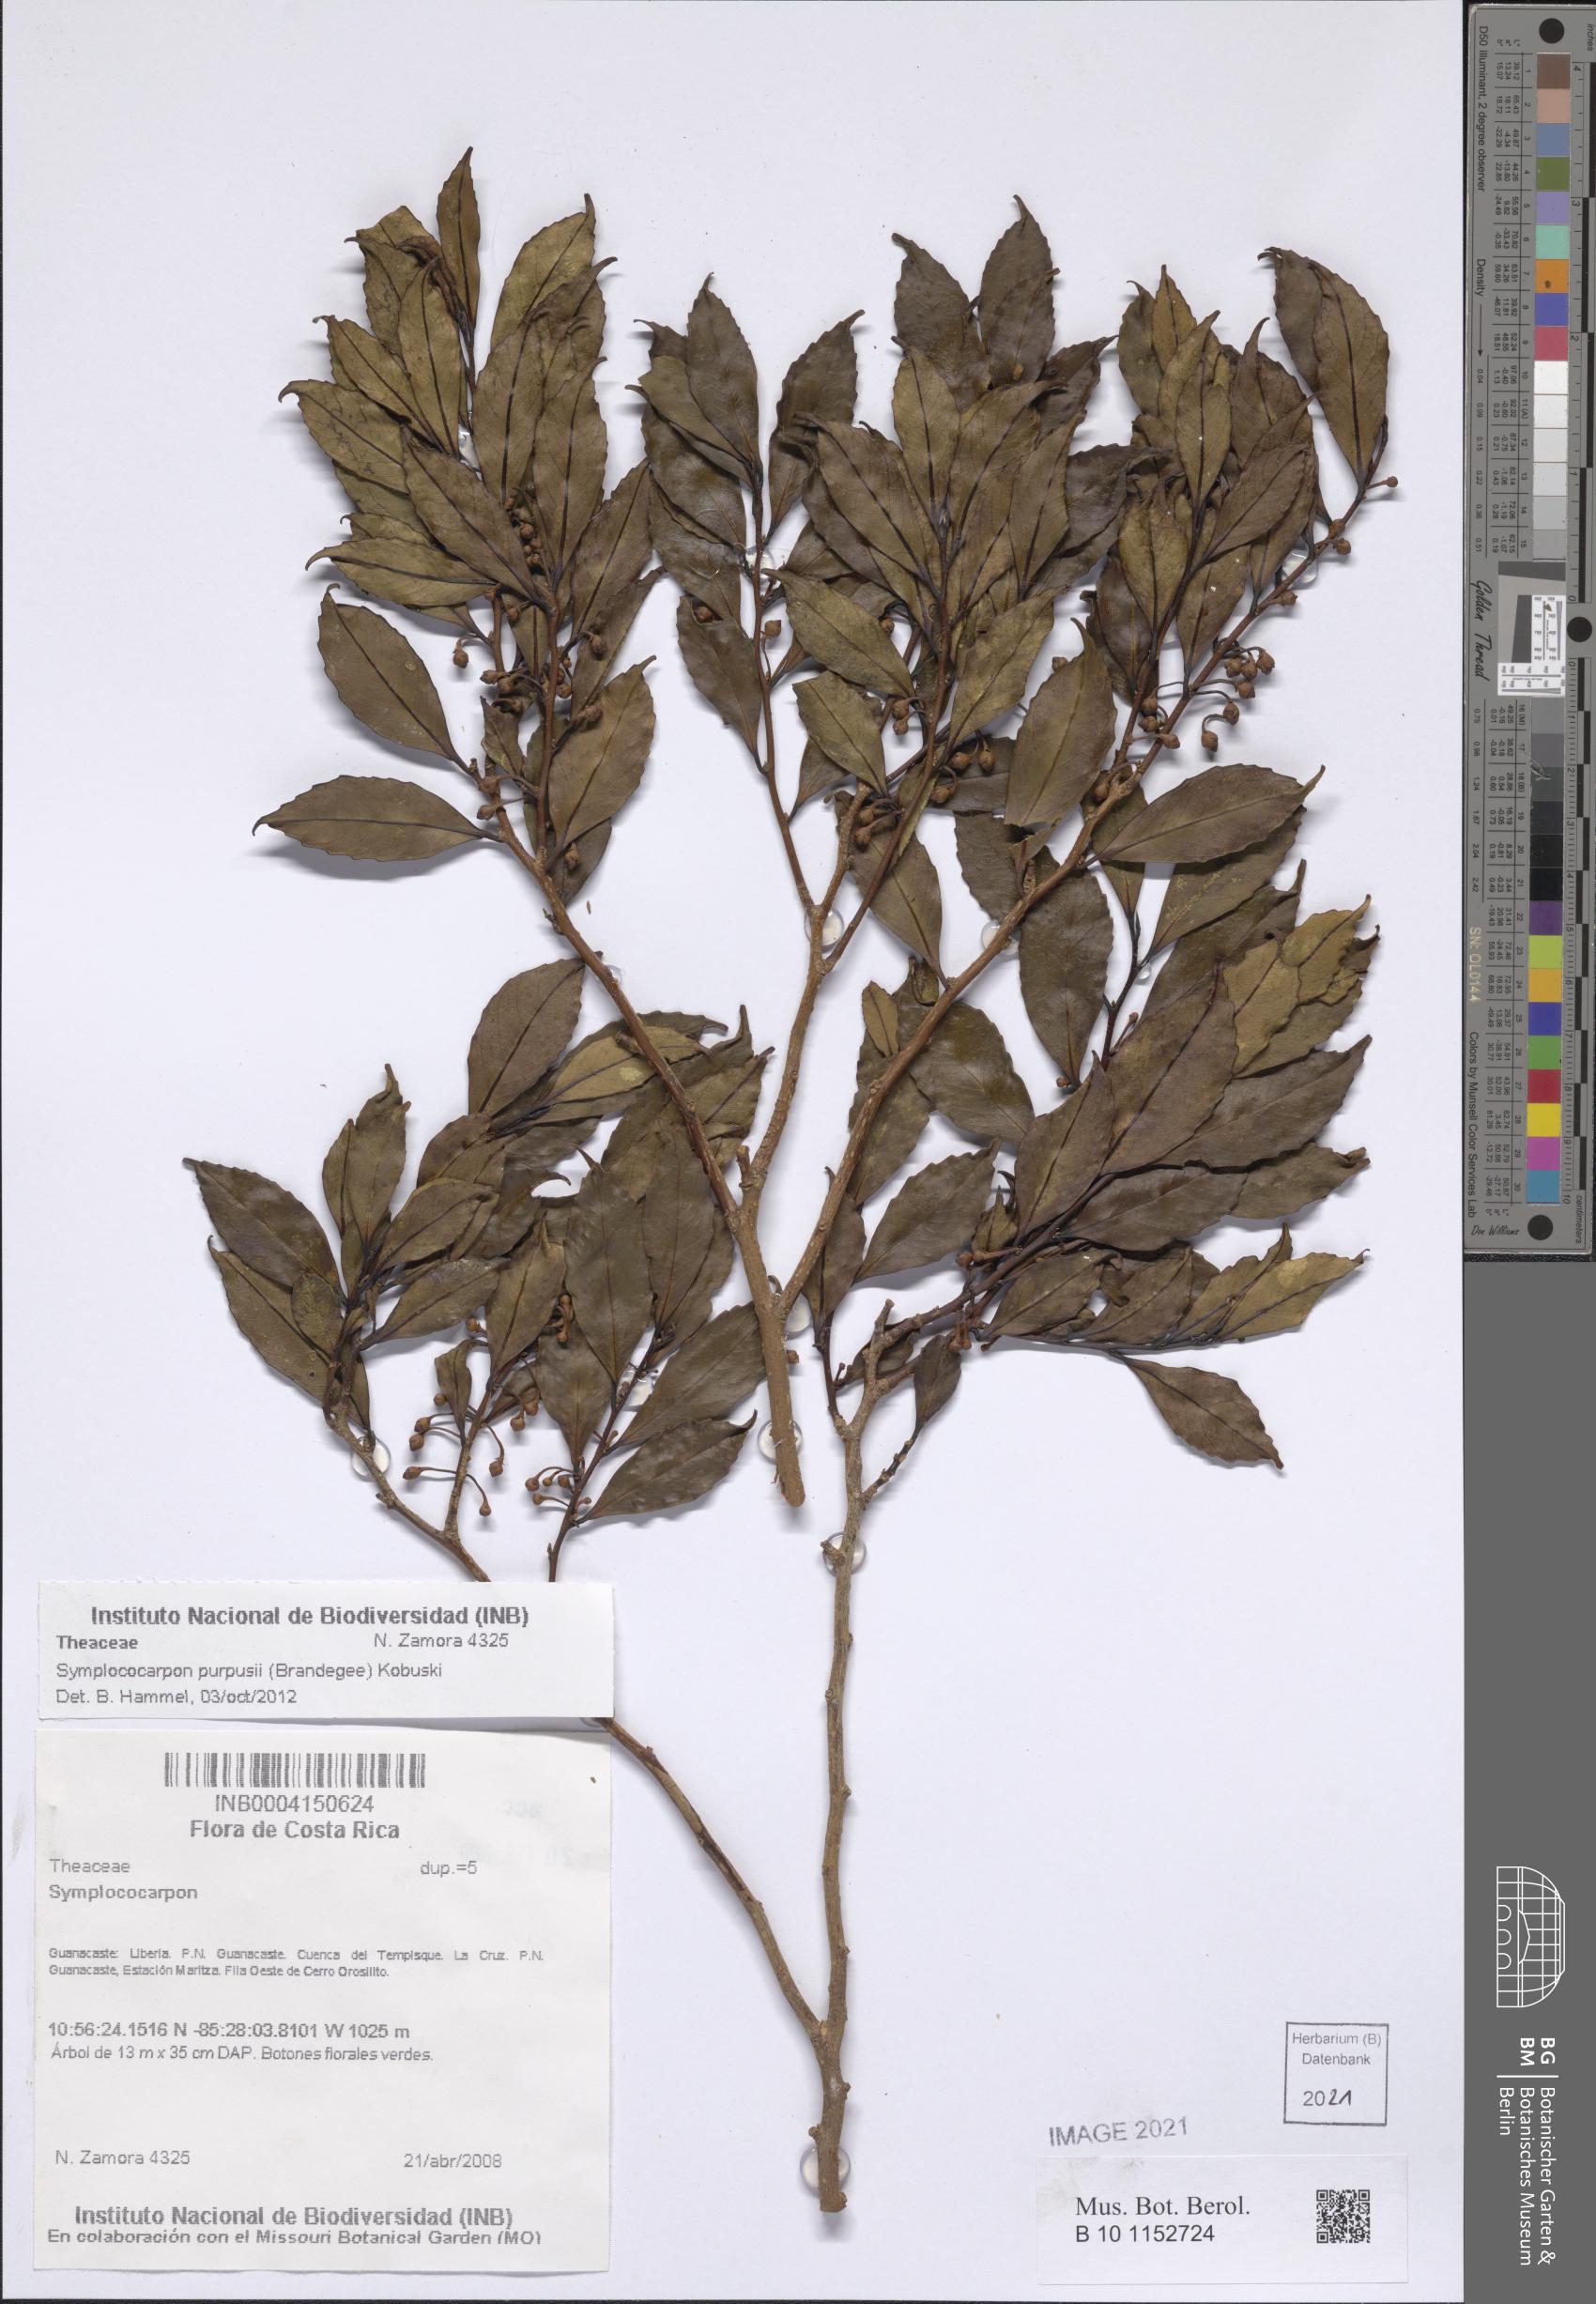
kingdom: Plantae
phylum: Tracheophyta
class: Magnoliopsida
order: Ericales
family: Pentaphylacaceae
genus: Symplococarpon
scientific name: Symplococarpon purpusii
